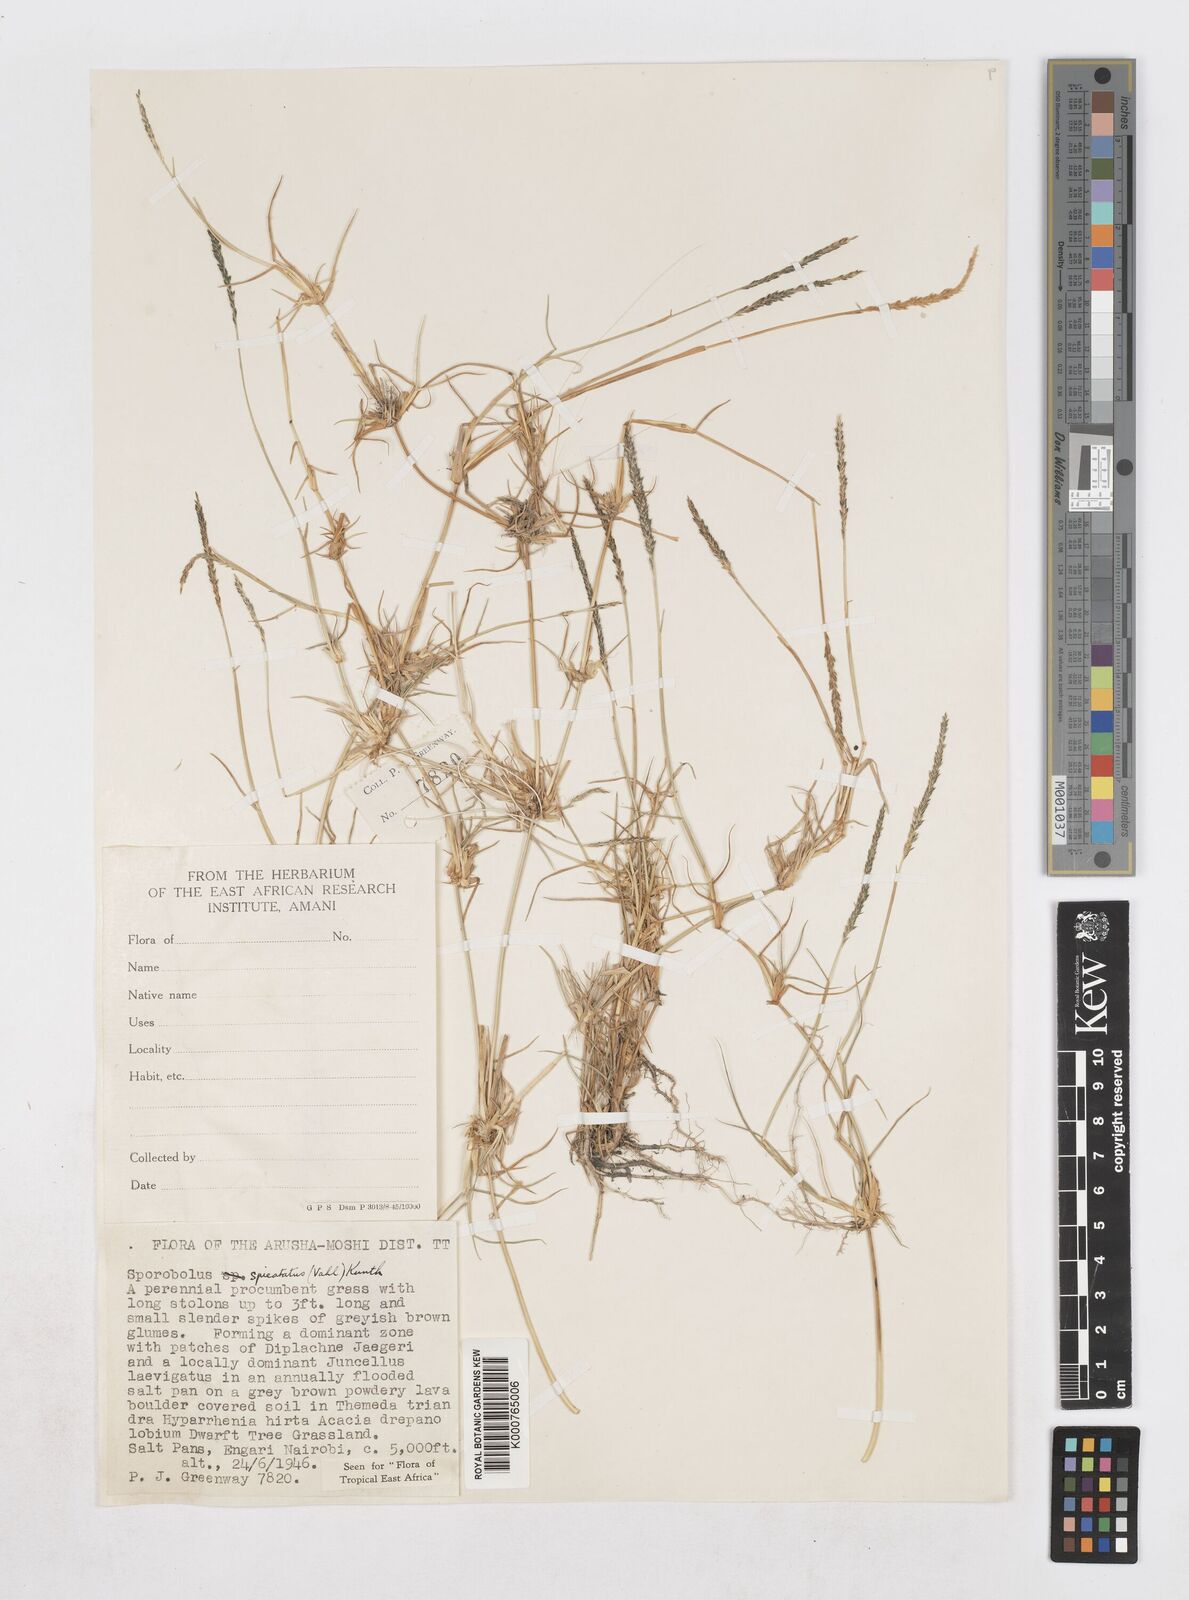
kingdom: Plantae
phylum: Tracheophyta
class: Liliopsida
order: Poales
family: Poaceae
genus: Sporobolus
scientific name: Sporobolus spicatus
